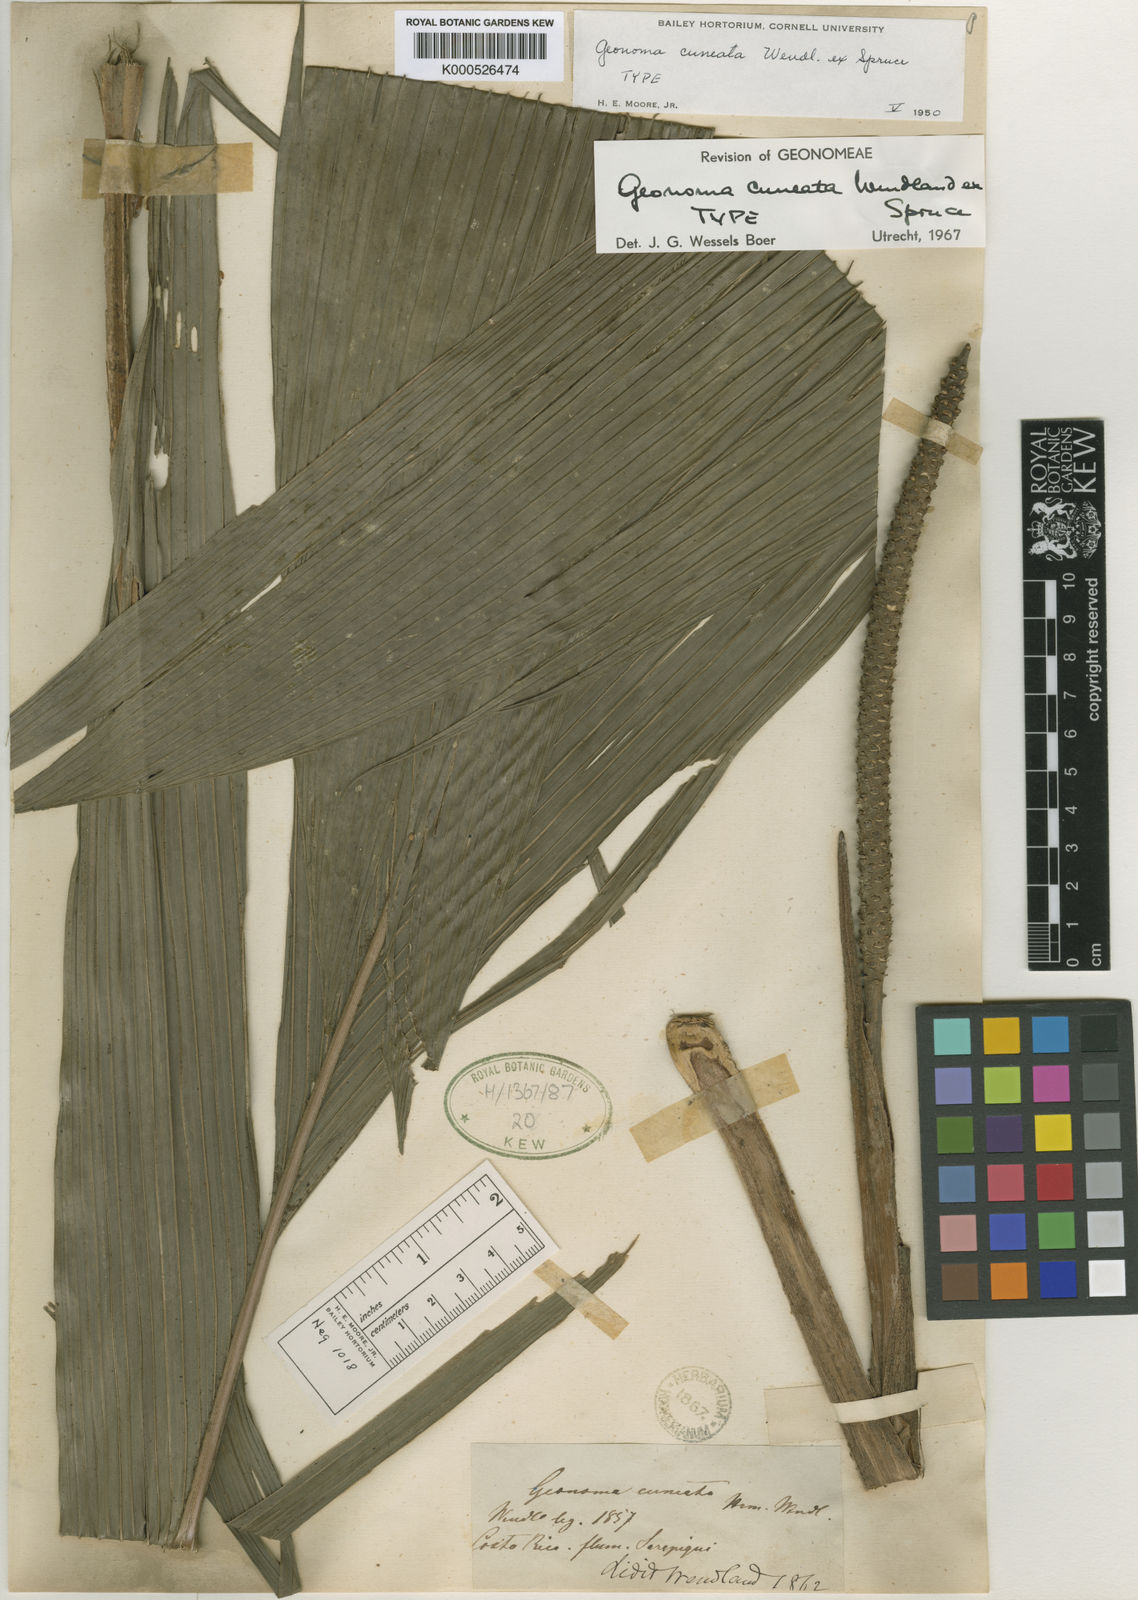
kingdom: Plantae
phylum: Tracheophyta
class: Liliopsida
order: Arecales
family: Arecaceae
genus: Geonoma
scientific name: Geonoma cuneata
